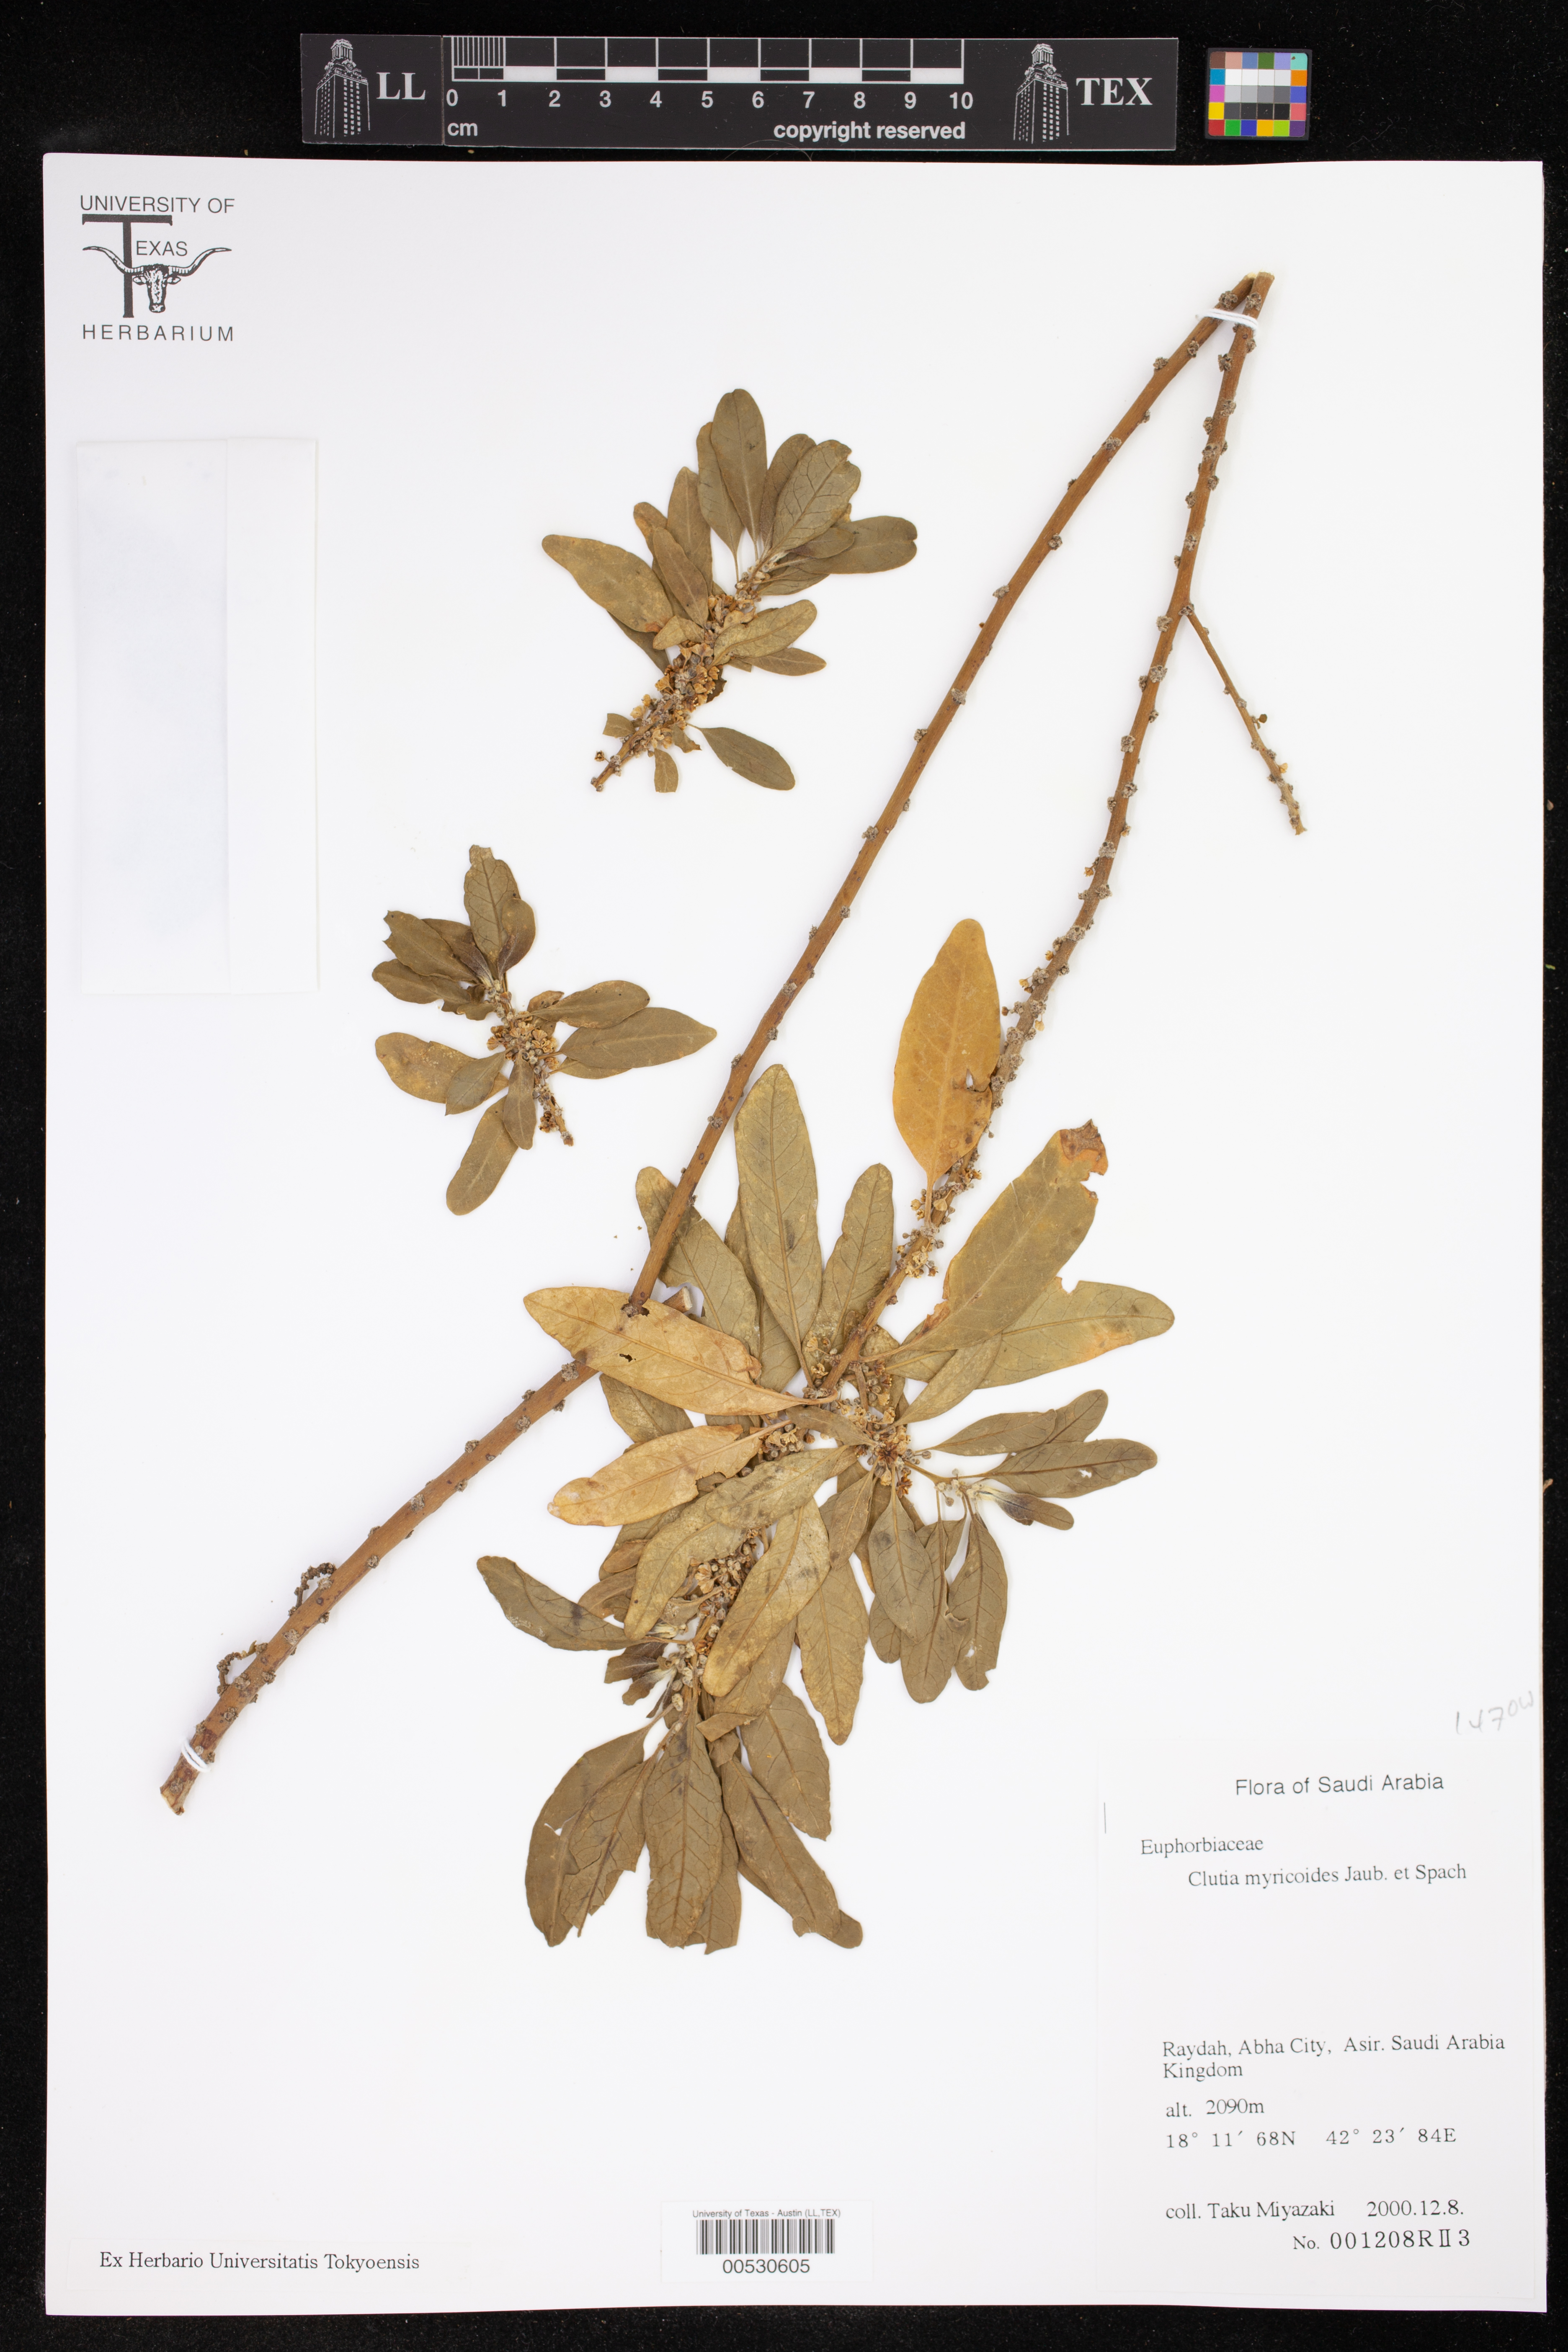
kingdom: Plantae
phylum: Tracheophyta
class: Magnoliopsida
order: Malpighiales
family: Peraceae
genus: Clutia
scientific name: Clutia lanceolata
